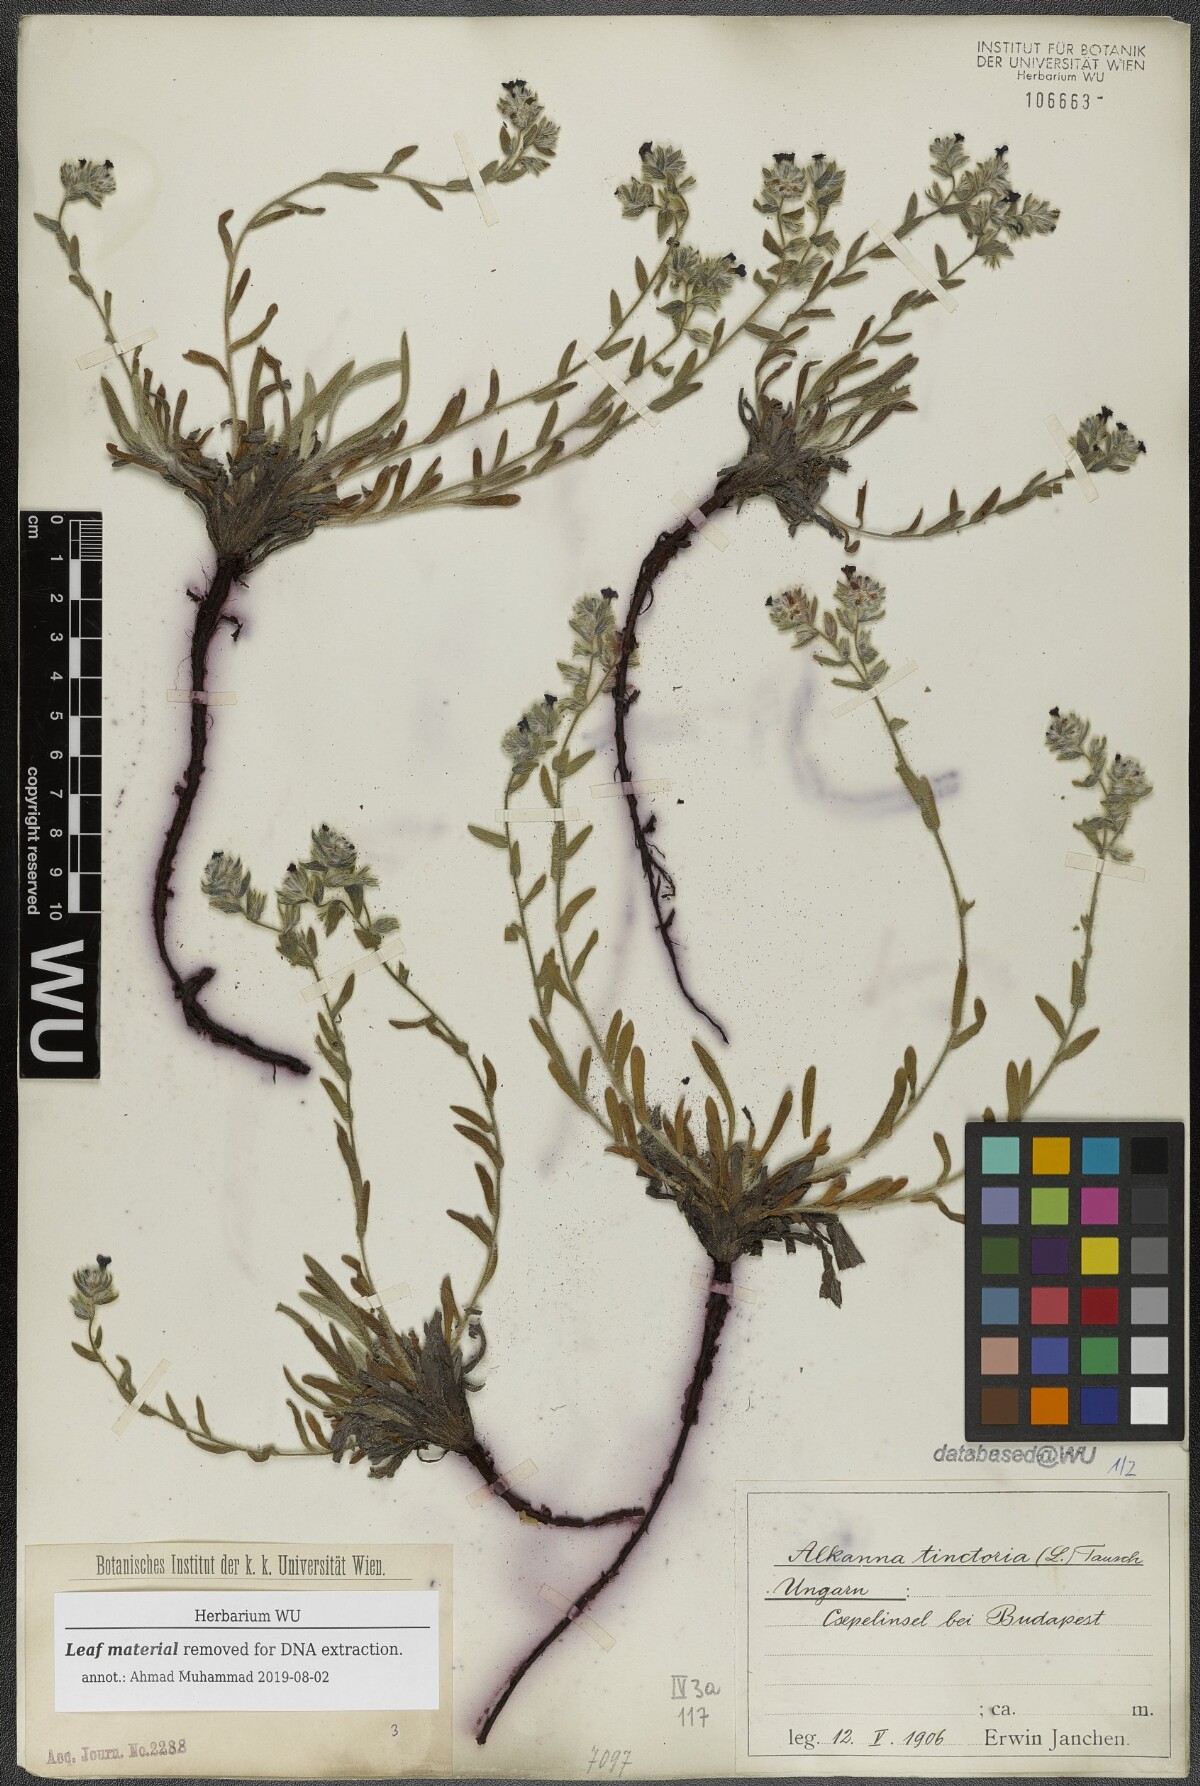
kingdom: Plantae
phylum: Tracheophyta
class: Magnoliopsida
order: Boraginales
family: Boraginaceae
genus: Alkanna
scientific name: Alkanna tinctoria
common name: Dyer's-alkanet
